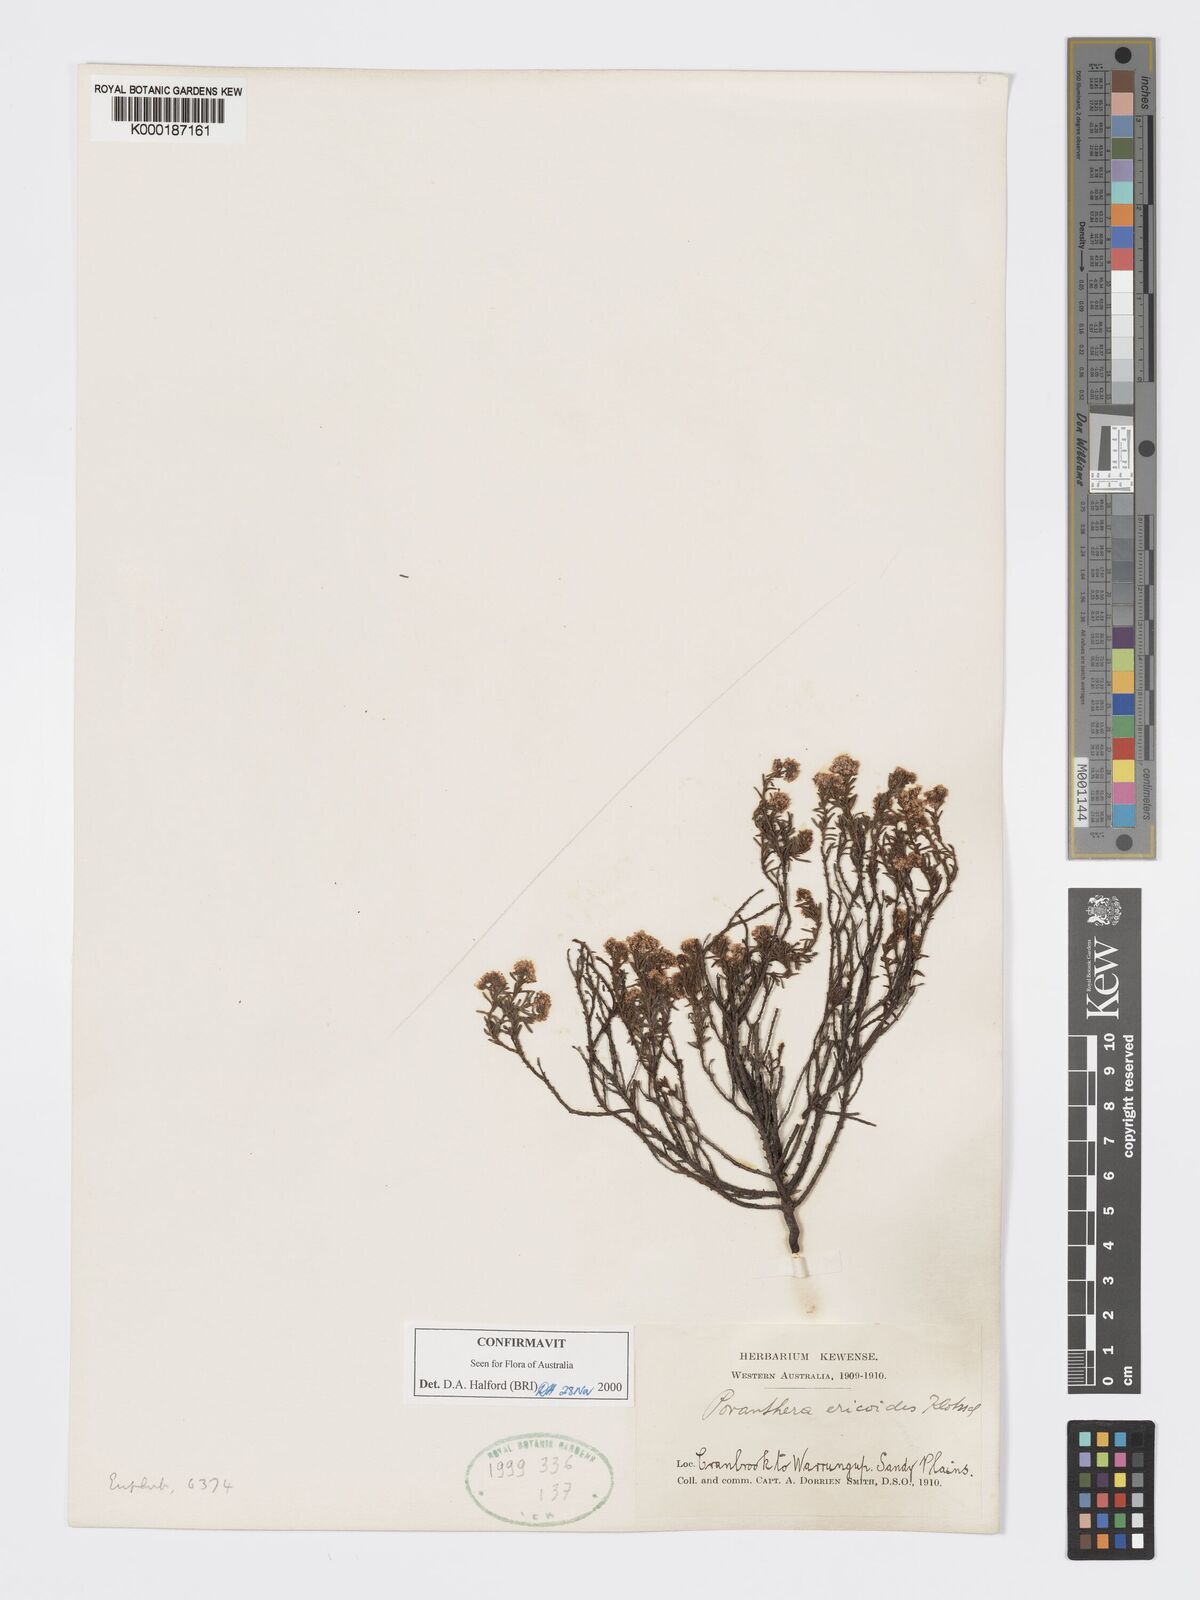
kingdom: Plantae
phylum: Tracheophyta
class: Magnoliopsida
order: Malpighiales
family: Phyllanthaceae
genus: Poranthera
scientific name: Poranthera ericoides
